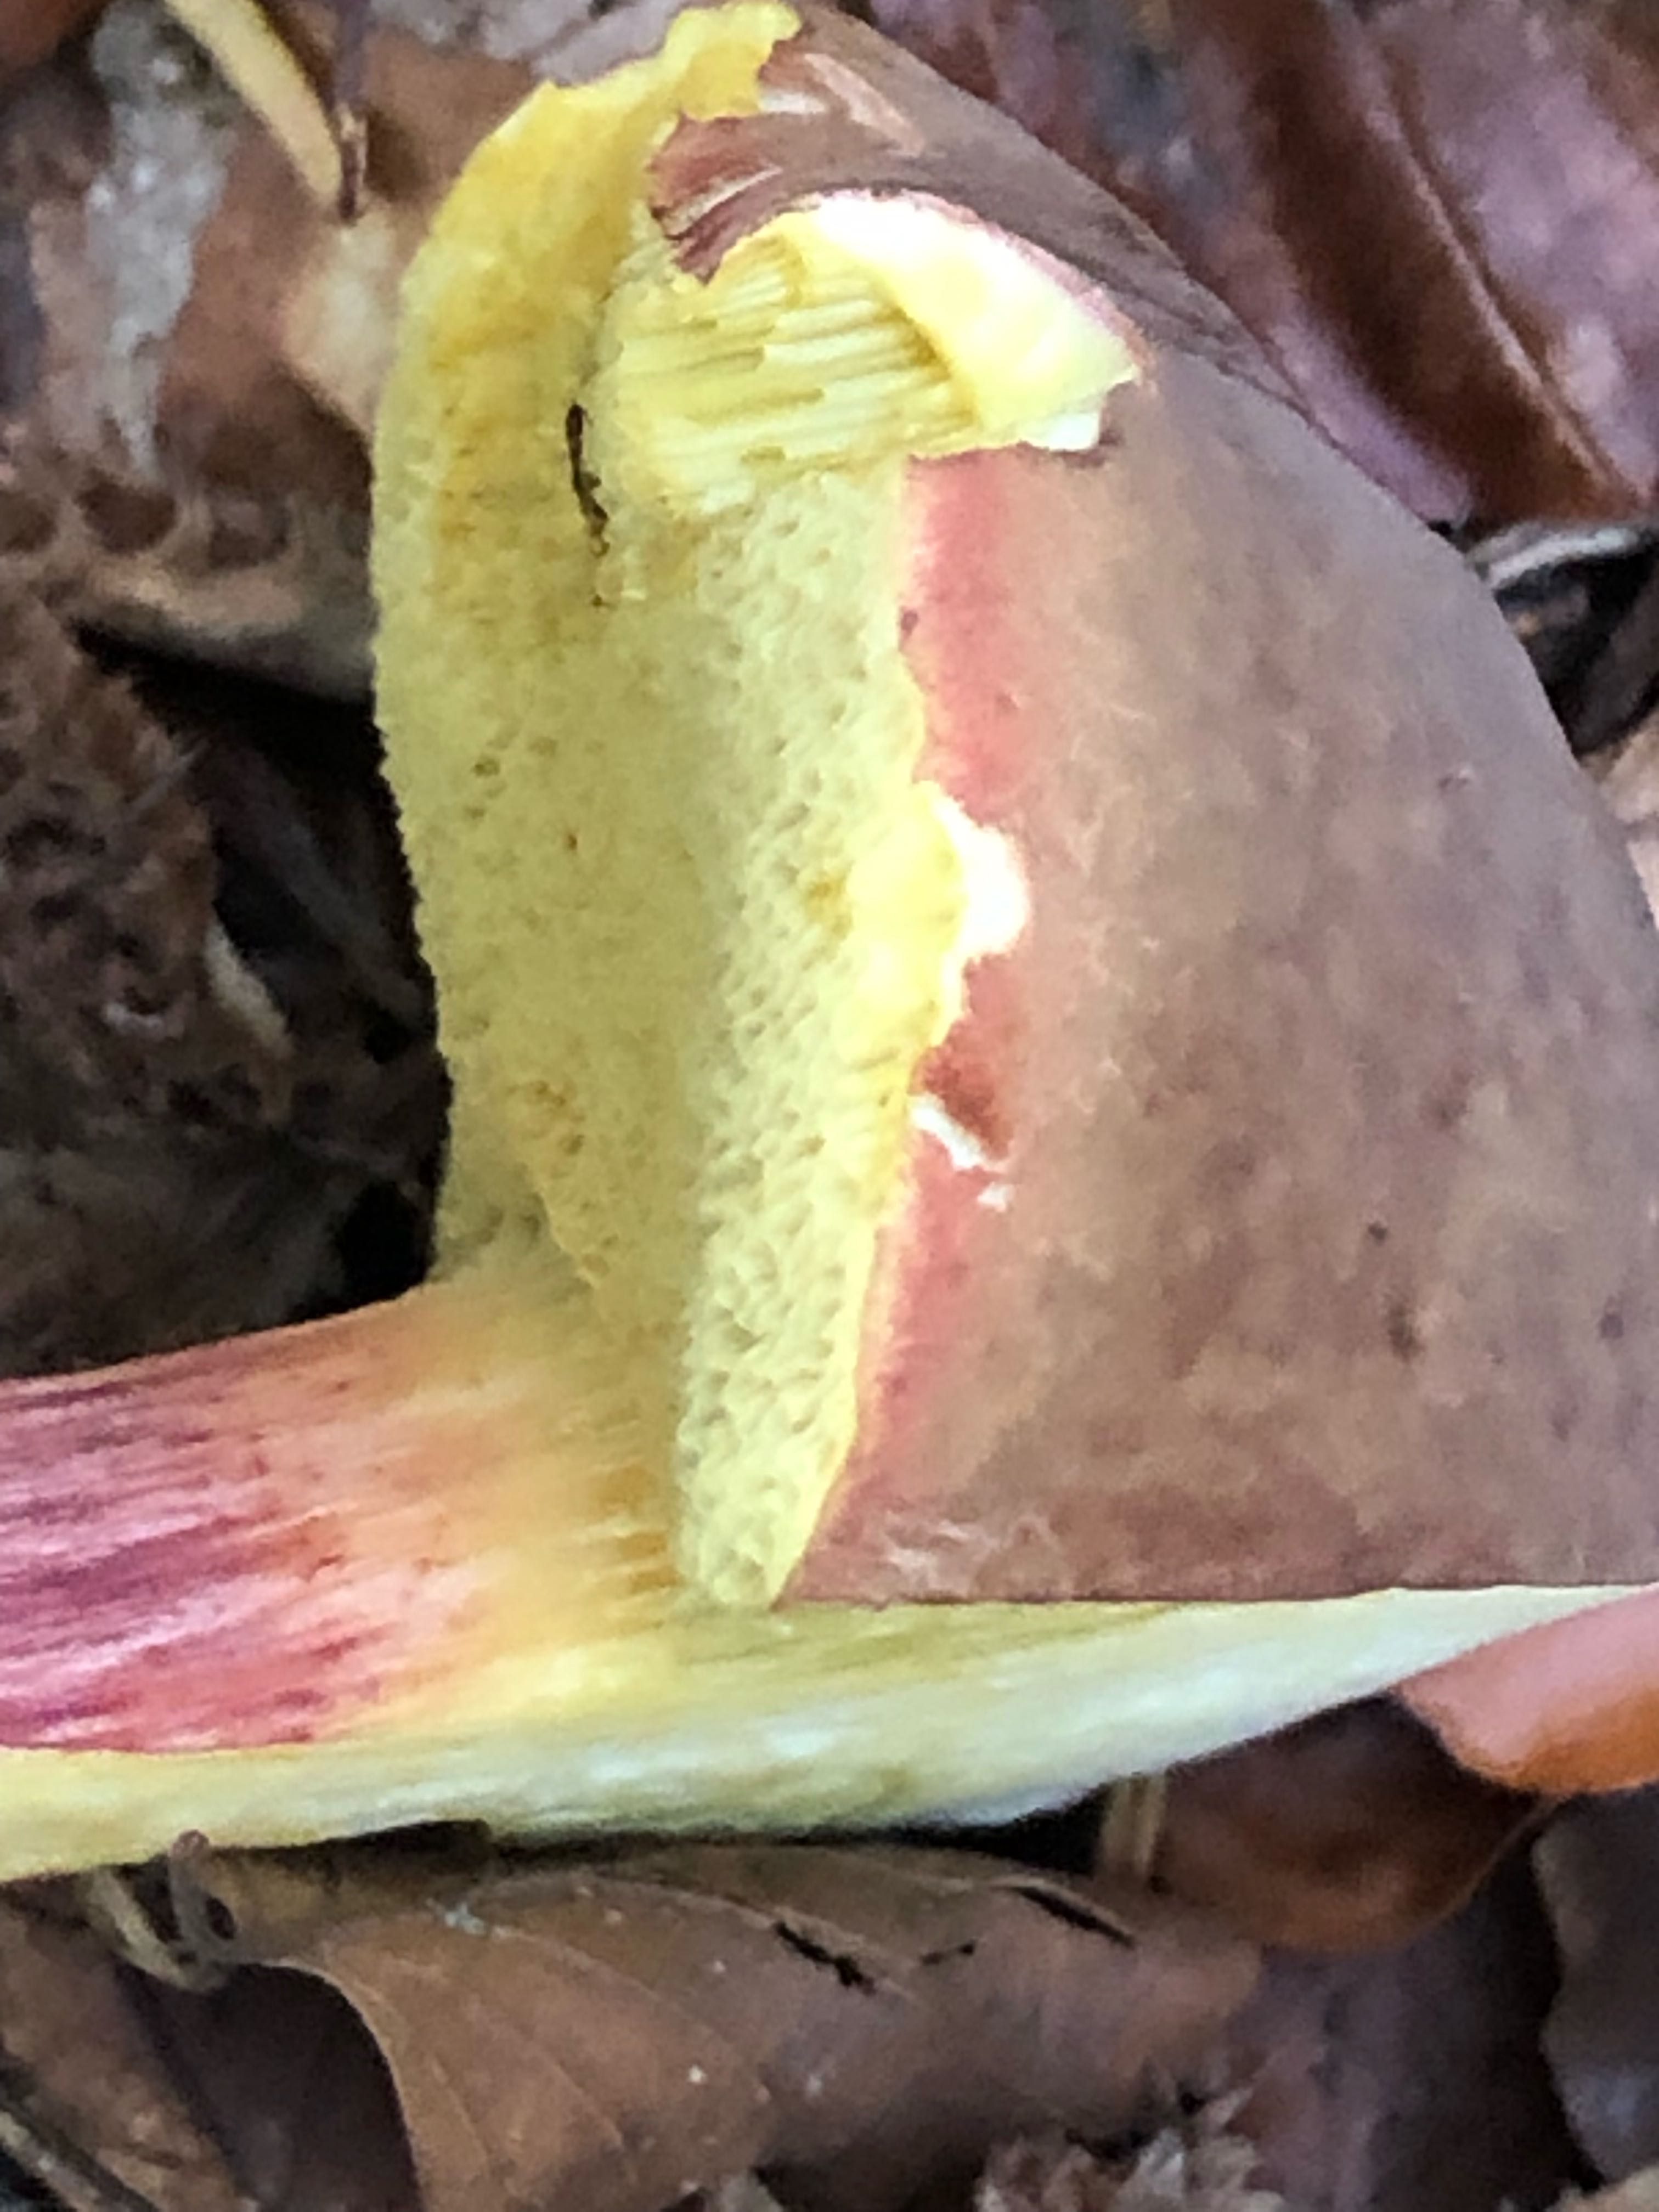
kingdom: Fungi
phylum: Basidiomycota
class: Agaricomycetes
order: Boletales
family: Boletaceae
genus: Xerocomellus
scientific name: Xerocomellus pruinatus
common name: dugget rørhat
